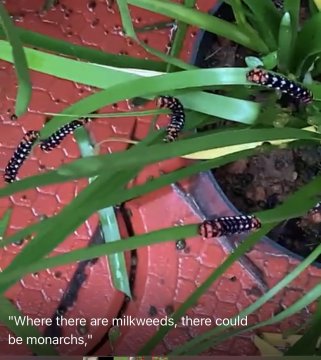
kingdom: Animalia
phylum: Arthropoda
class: Insecta
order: Lepidoptera
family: Nymphalidae
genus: Danaus
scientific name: Danaus genutia
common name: Common Tiger
